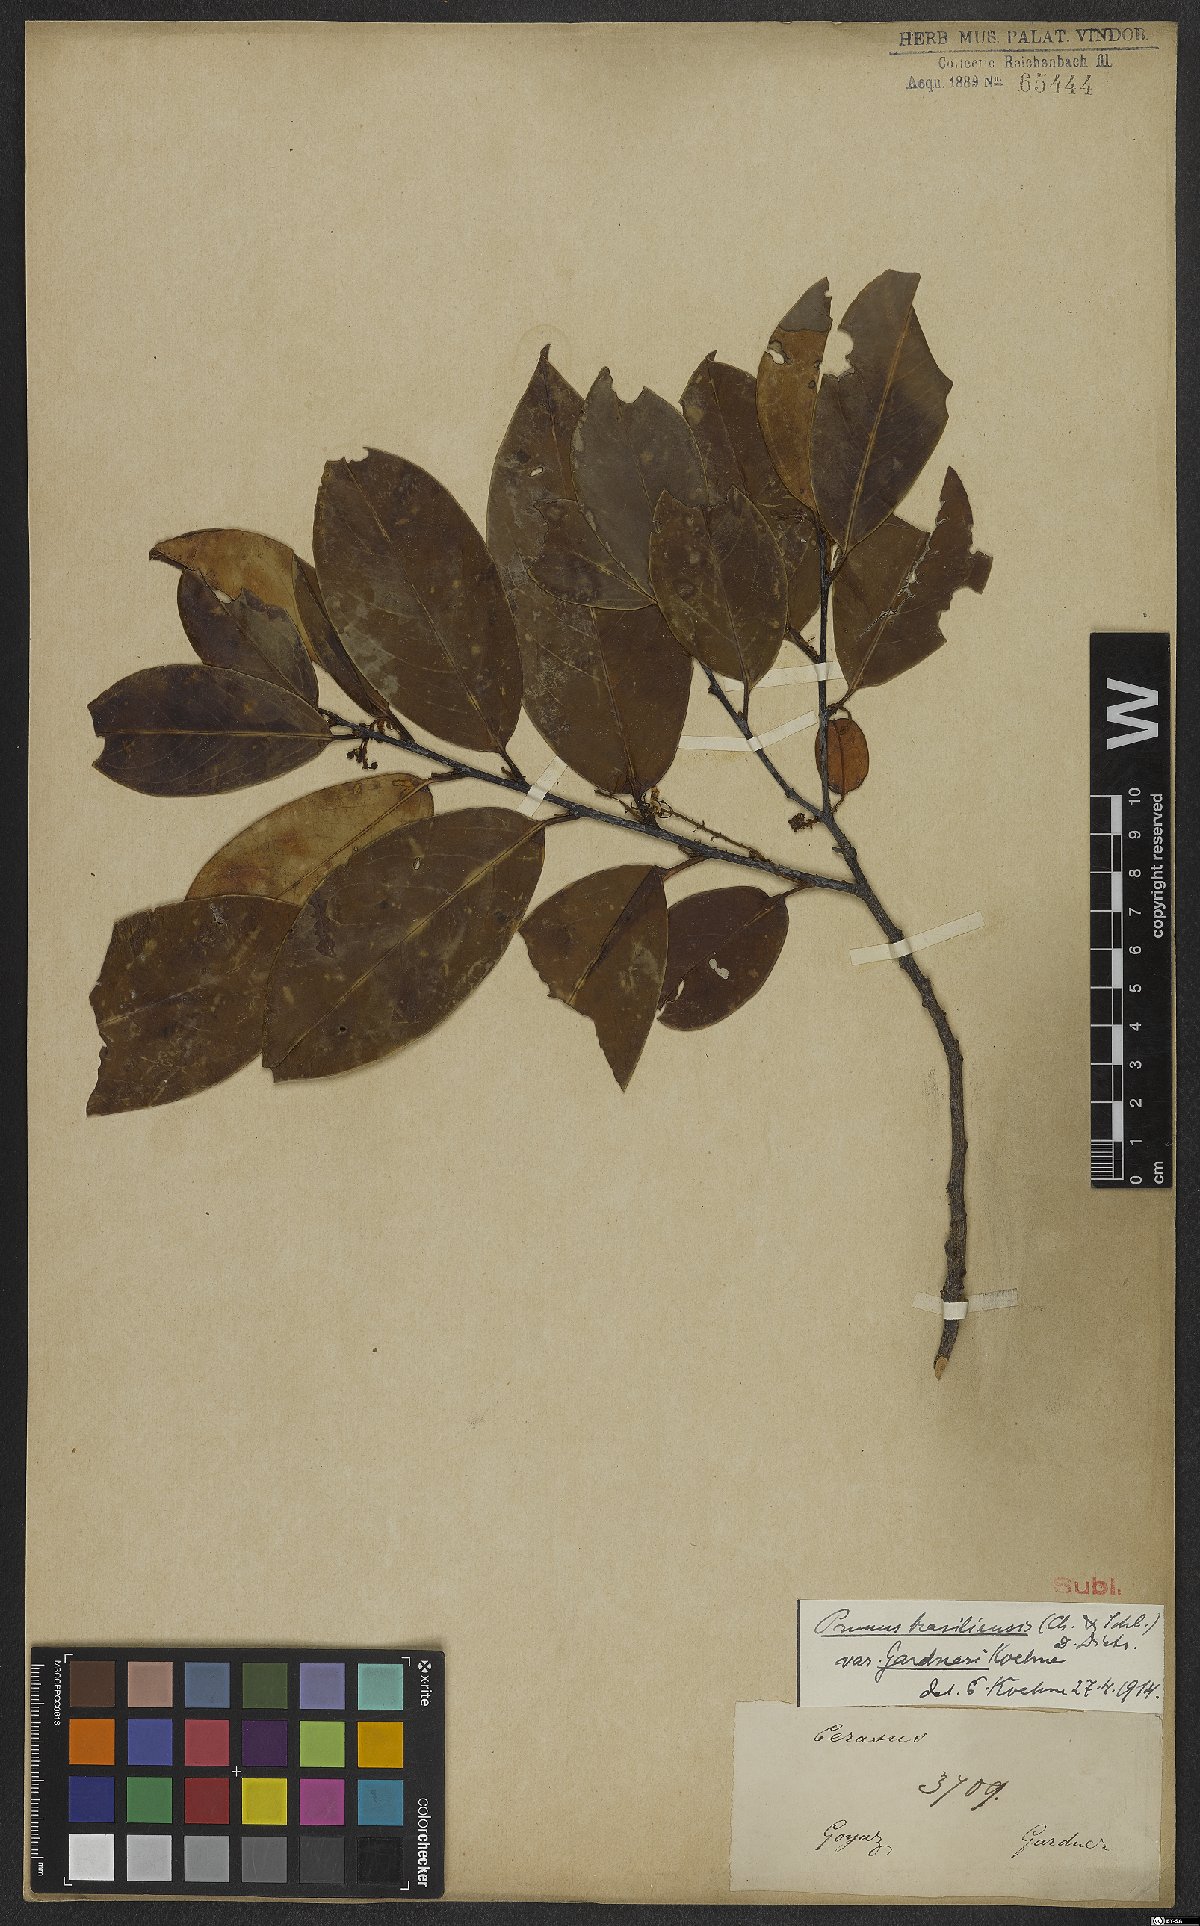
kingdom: Plantae
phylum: Tracheophyta
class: Magnoliopsida
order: Rosales
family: Rosaceae
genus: Prunus
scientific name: Prunus brasiliensis
